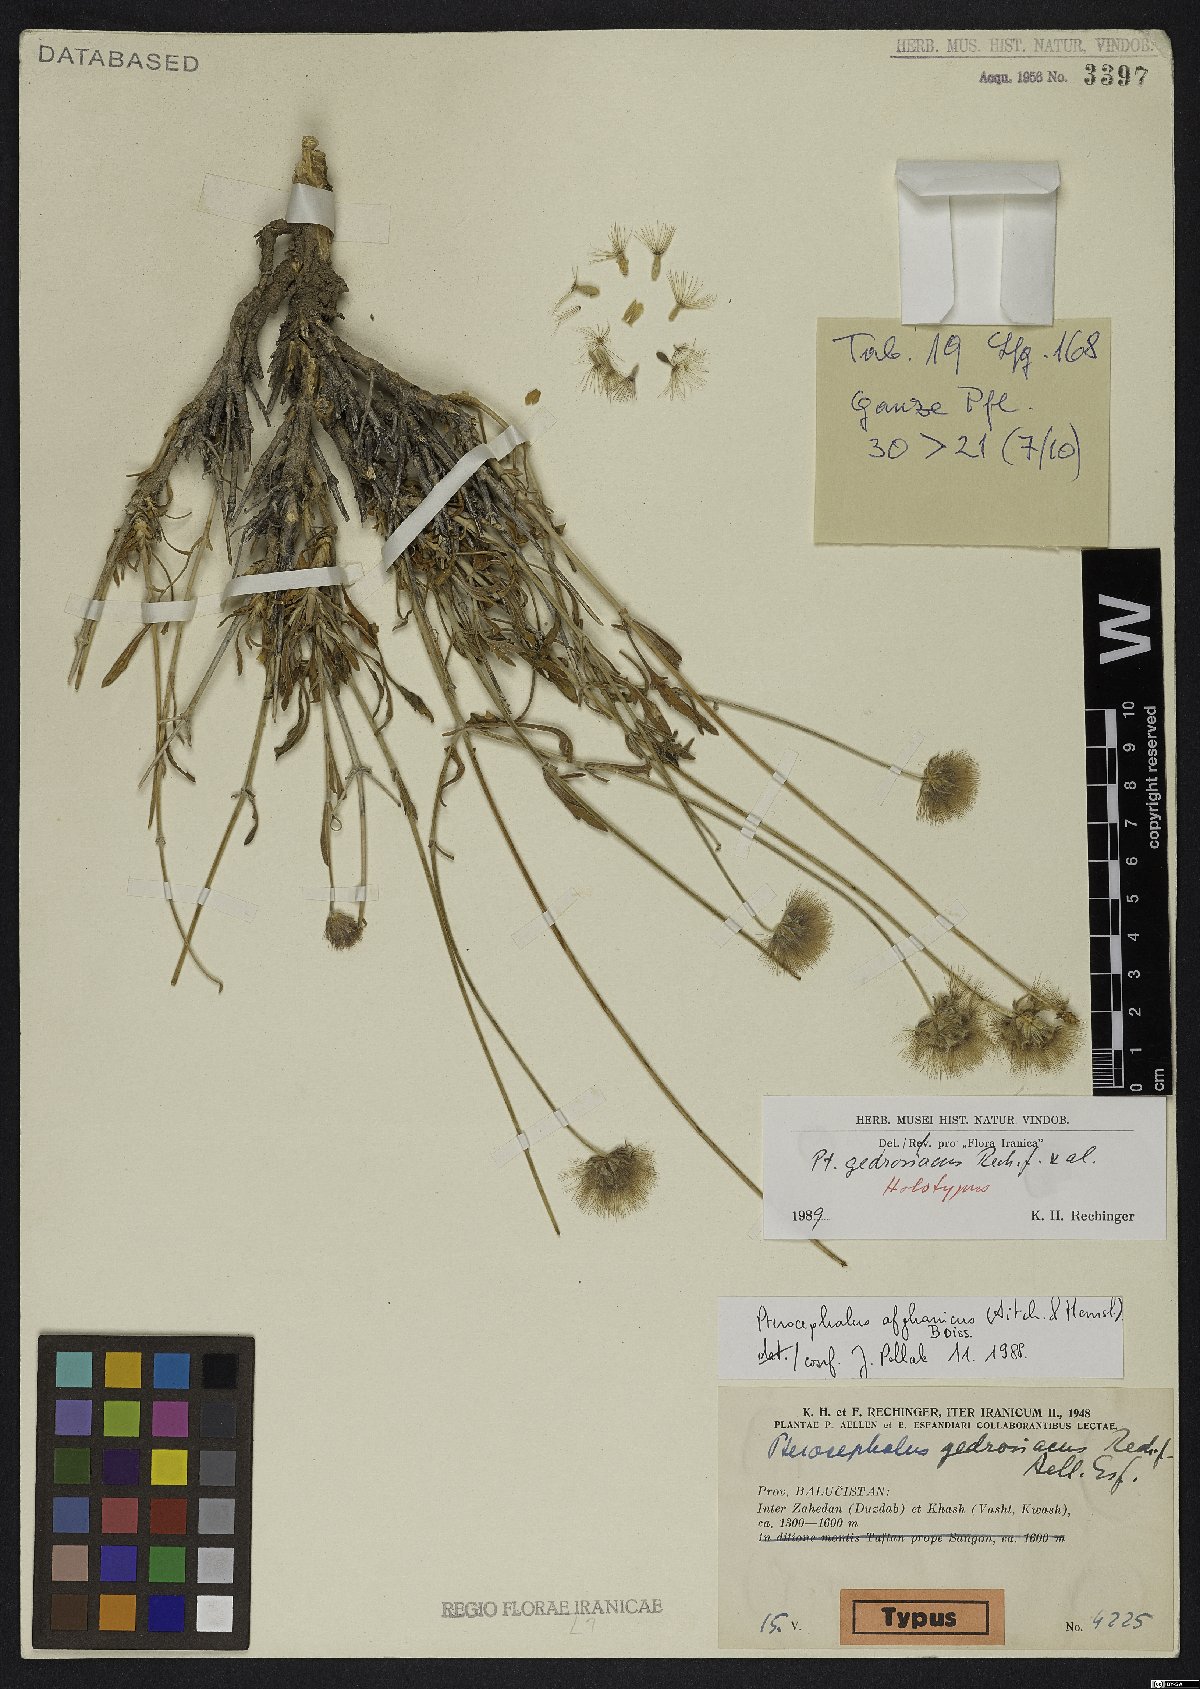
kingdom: Plantae
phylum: Tracheophyta
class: Magnoliopsida
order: Dipsacales
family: Caprifoliaceae
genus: Pterocephalus
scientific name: Pterocephalus gedrosiacus
